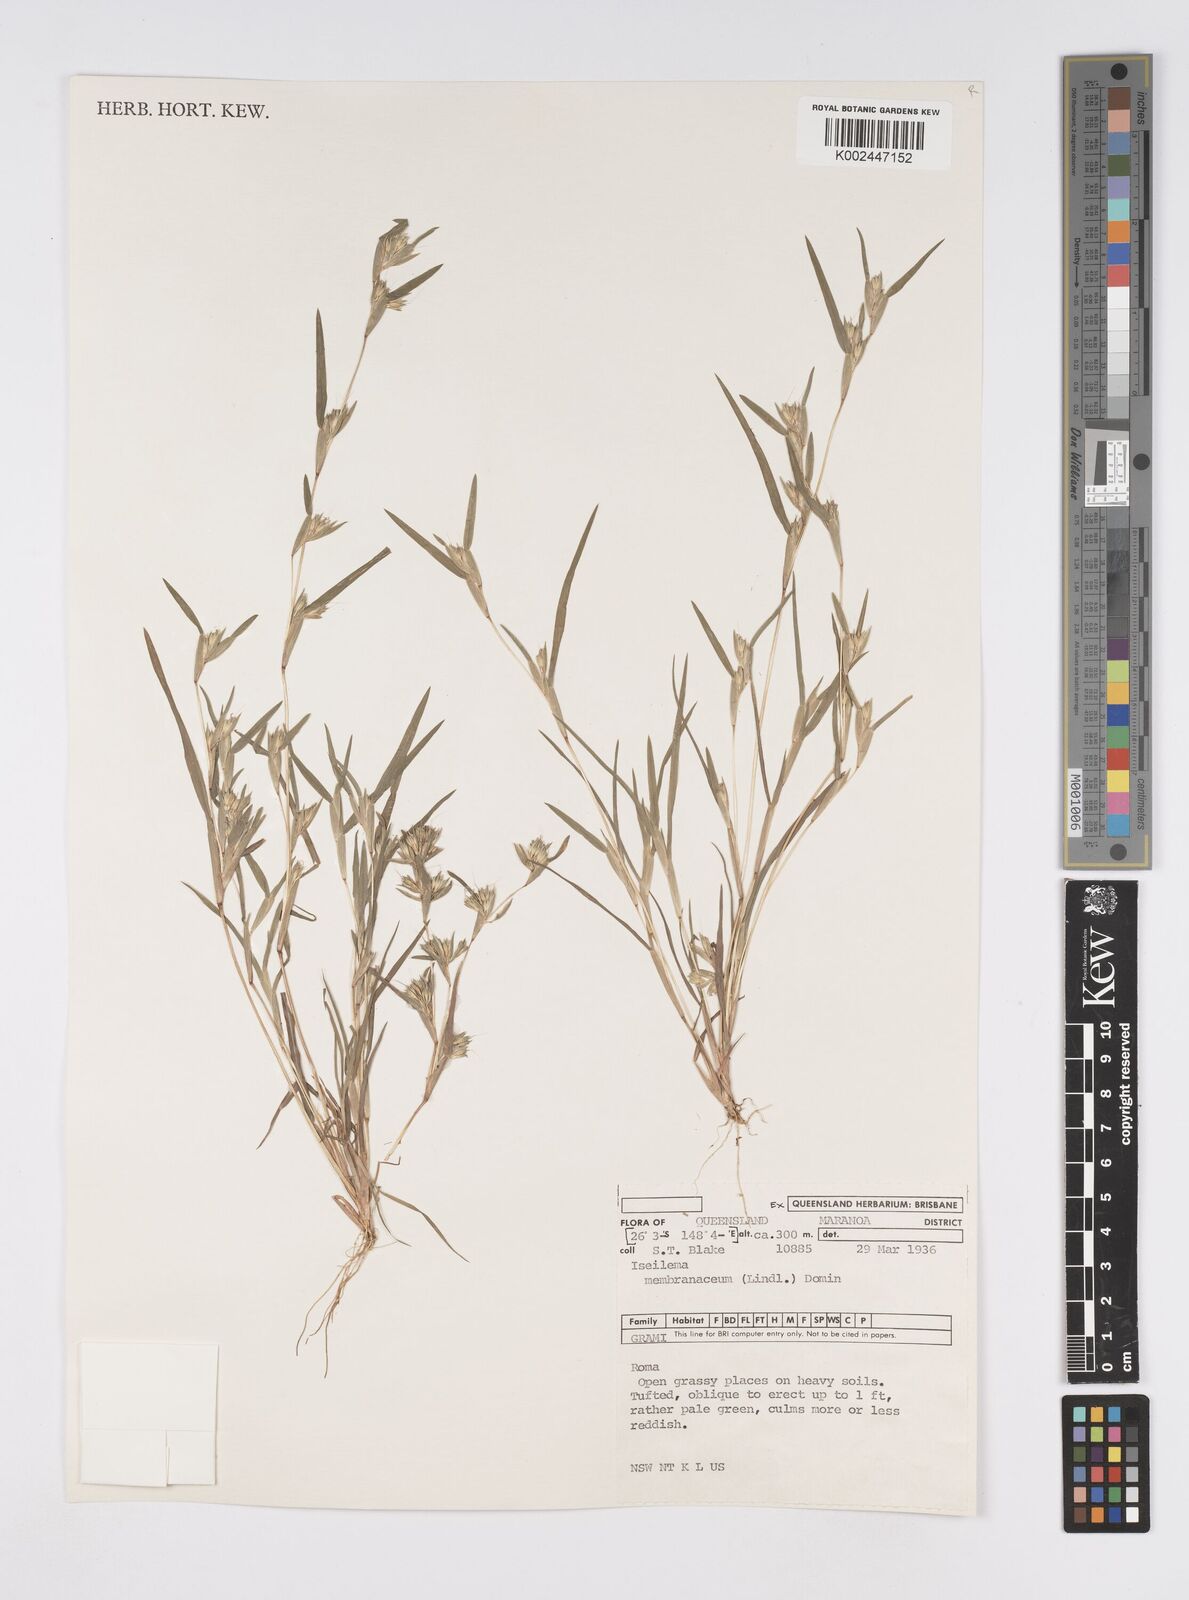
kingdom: Plantae
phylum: Tracheophyta
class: Liliopsida
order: Poales
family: Poaceae
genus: Iseilema
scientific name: Iseilema membranaceum
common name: Small flinders grass
